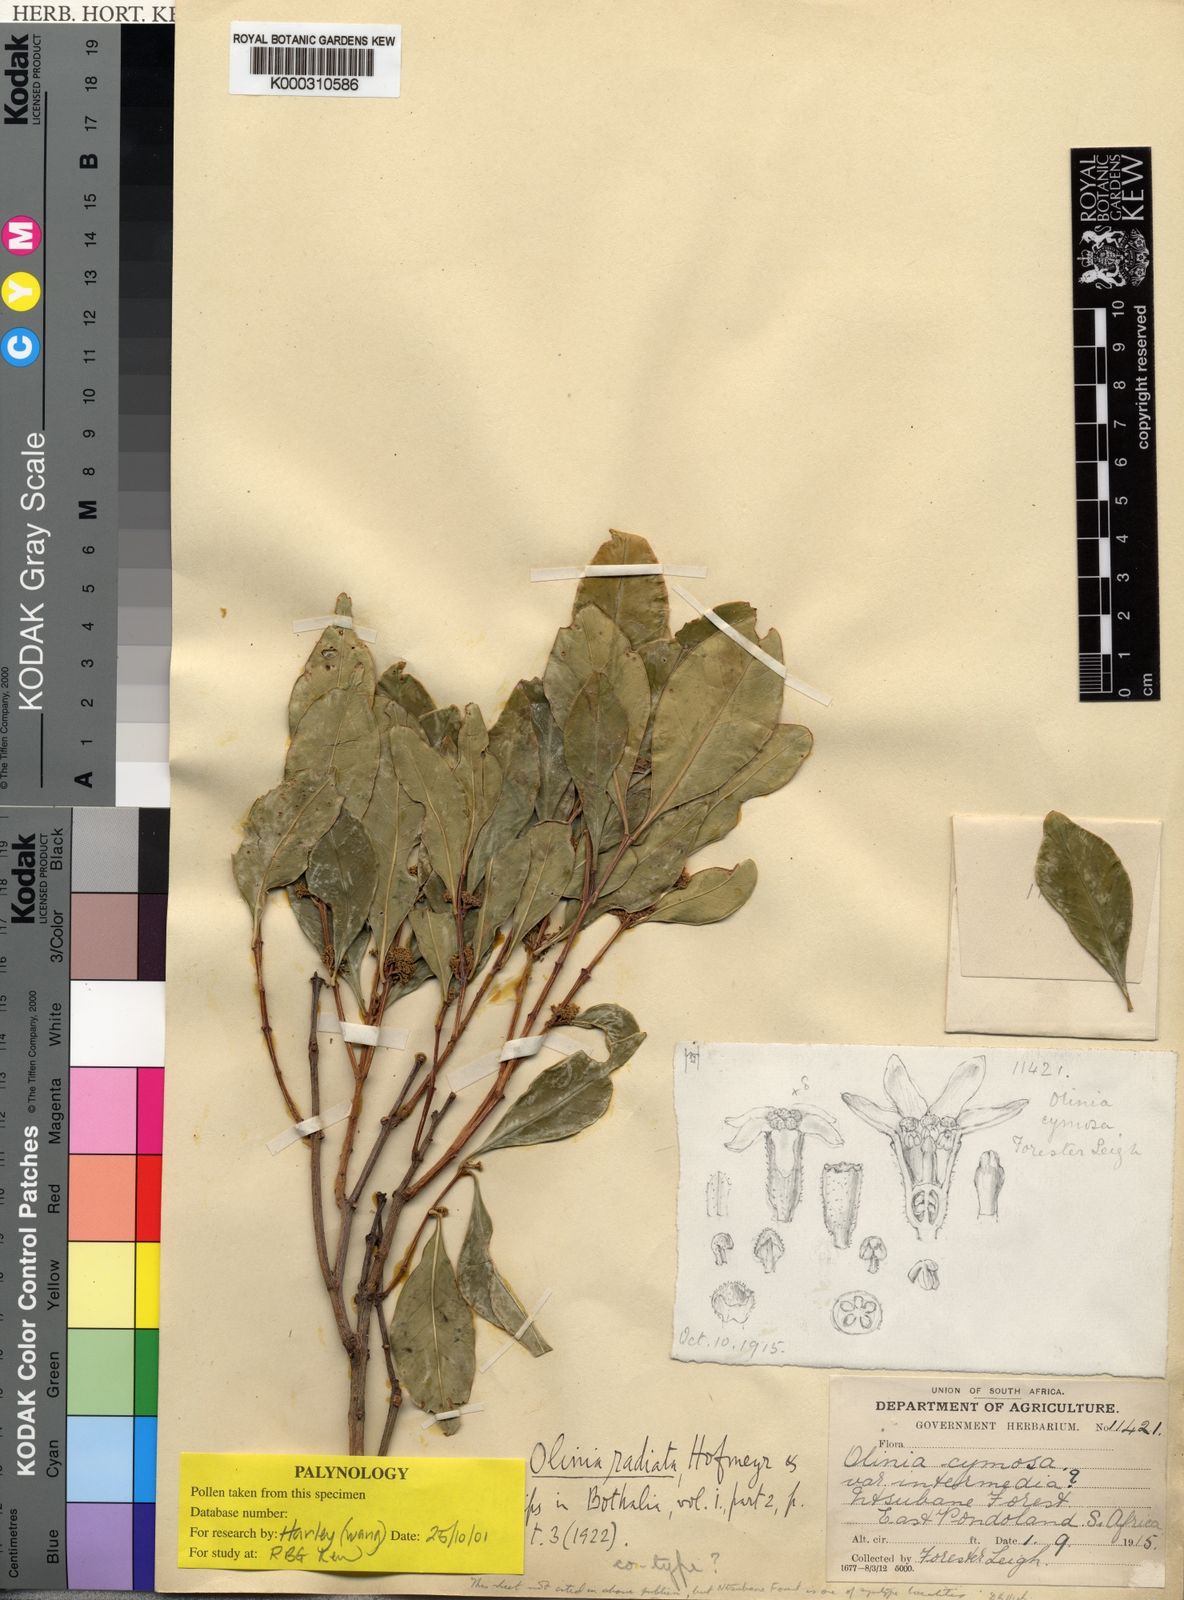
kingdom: Plantae
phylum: Tracheophyta
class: Magnoliopsida
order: Myrtales
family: Penaeaceae
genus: Olinia
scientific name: Olinia radiata
